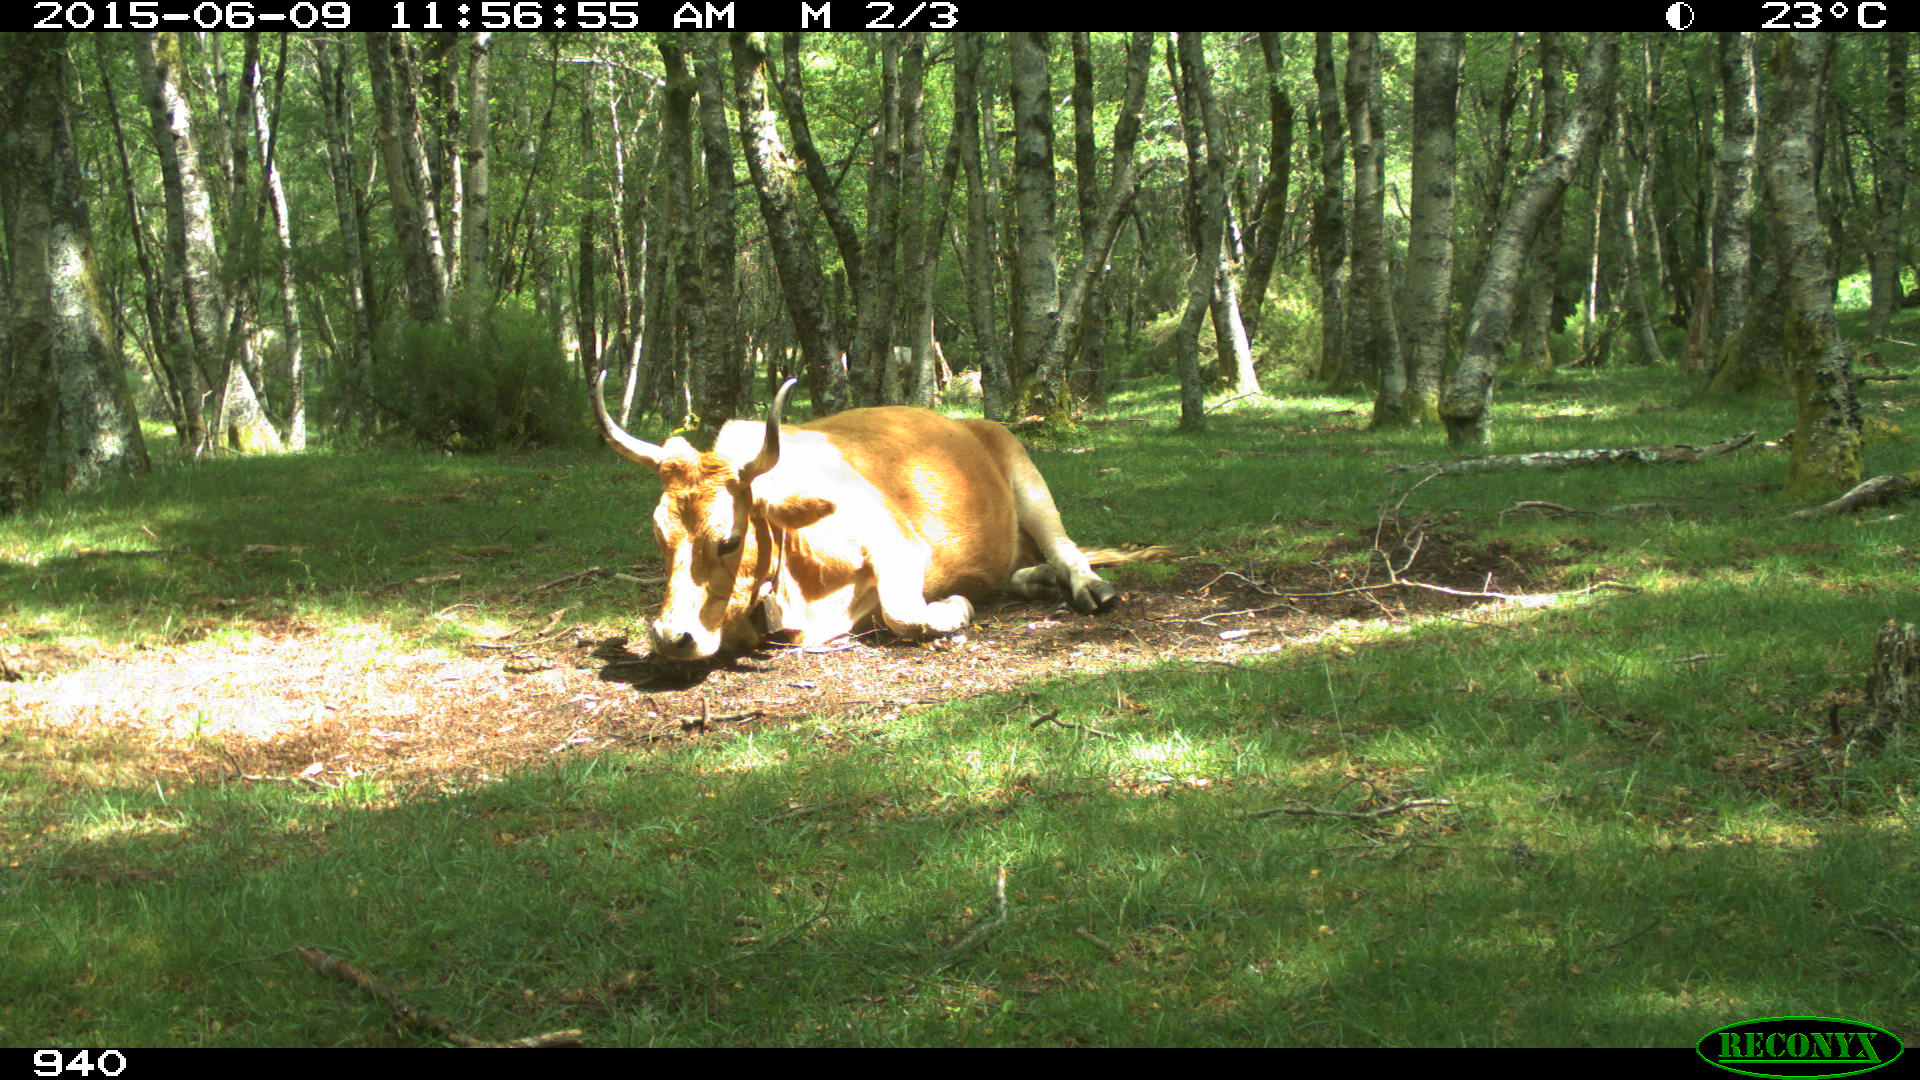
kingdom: Animalia
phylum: Chordata
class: Mammalia
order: Artiodactyla
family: Bovidae
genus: Bos
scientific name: Bos taurus
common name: Domesticated cattle
